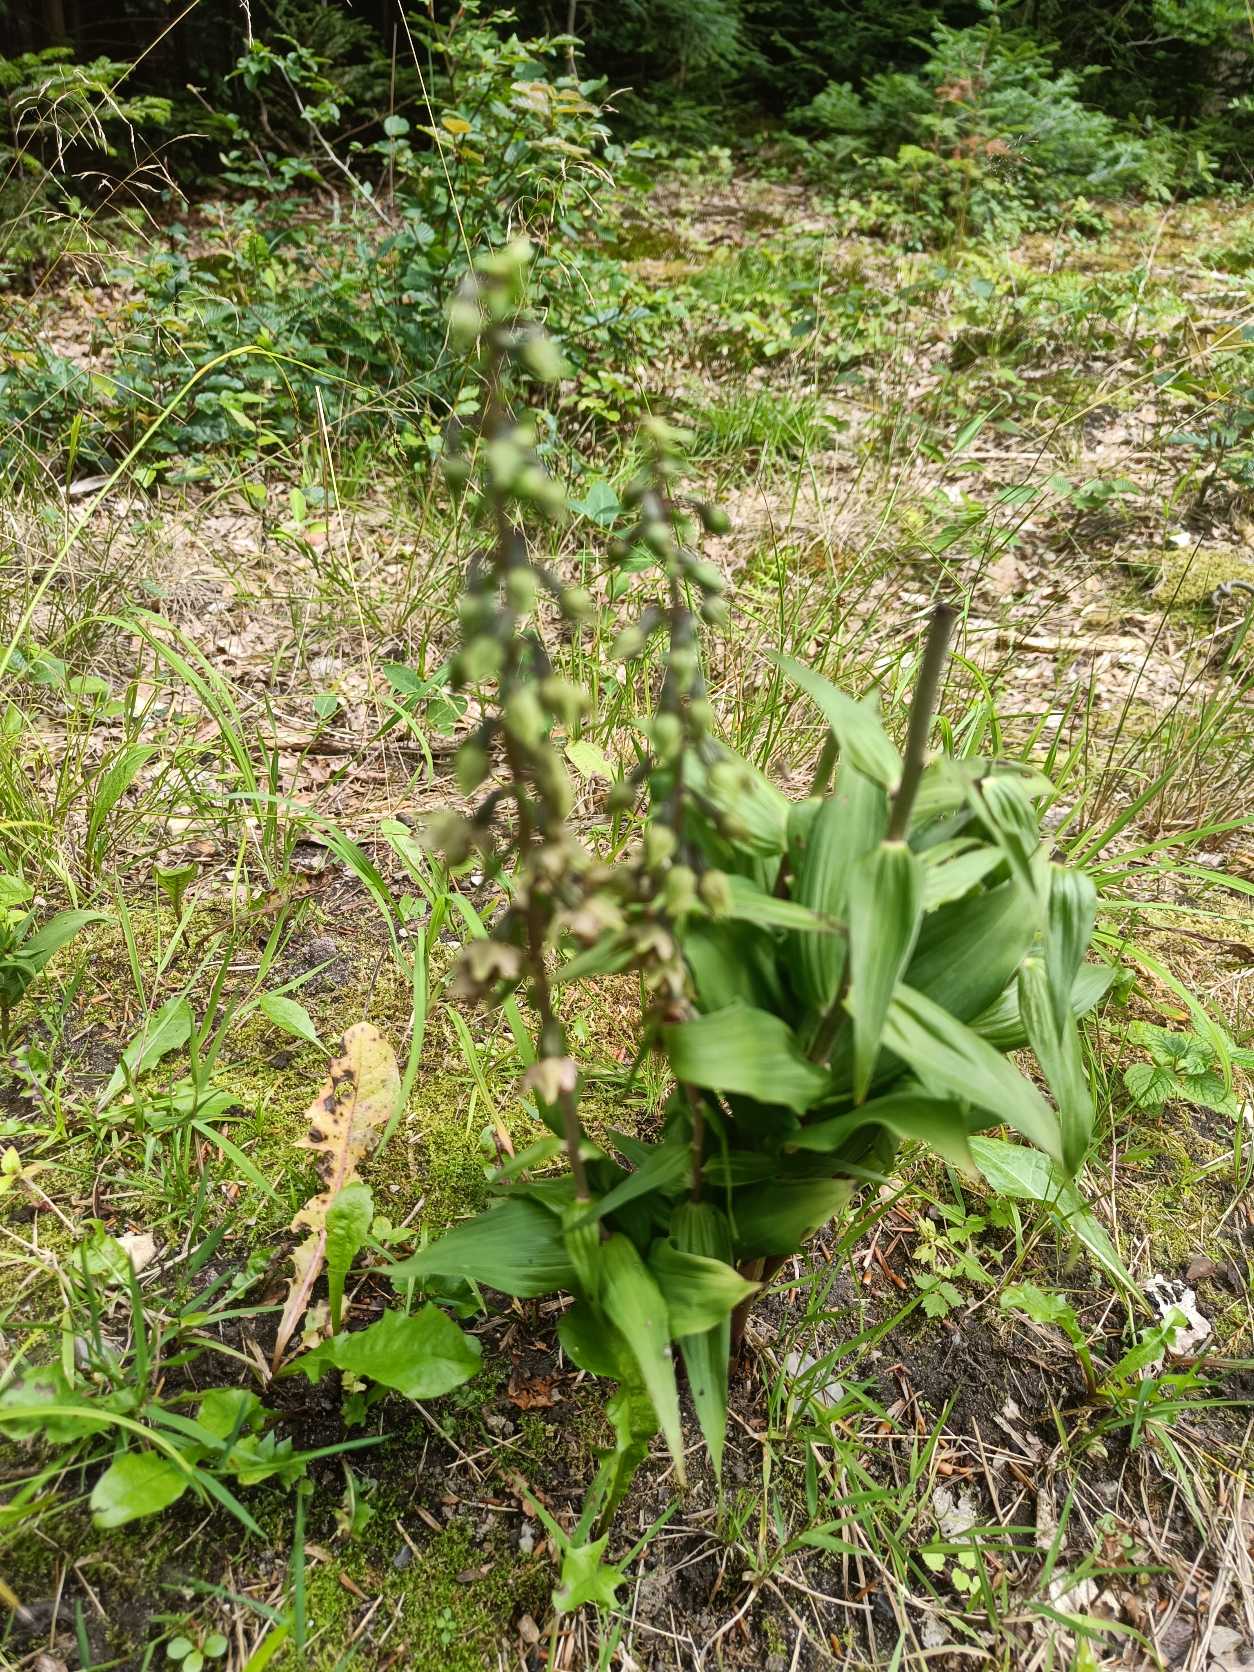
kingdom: Plantae
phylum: Tracheophyta
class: Liliopsida
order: Asparagales
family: Orchidaceae
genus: Epipactis
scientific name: Epipactis helleborine
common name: Skov-hullæbe
